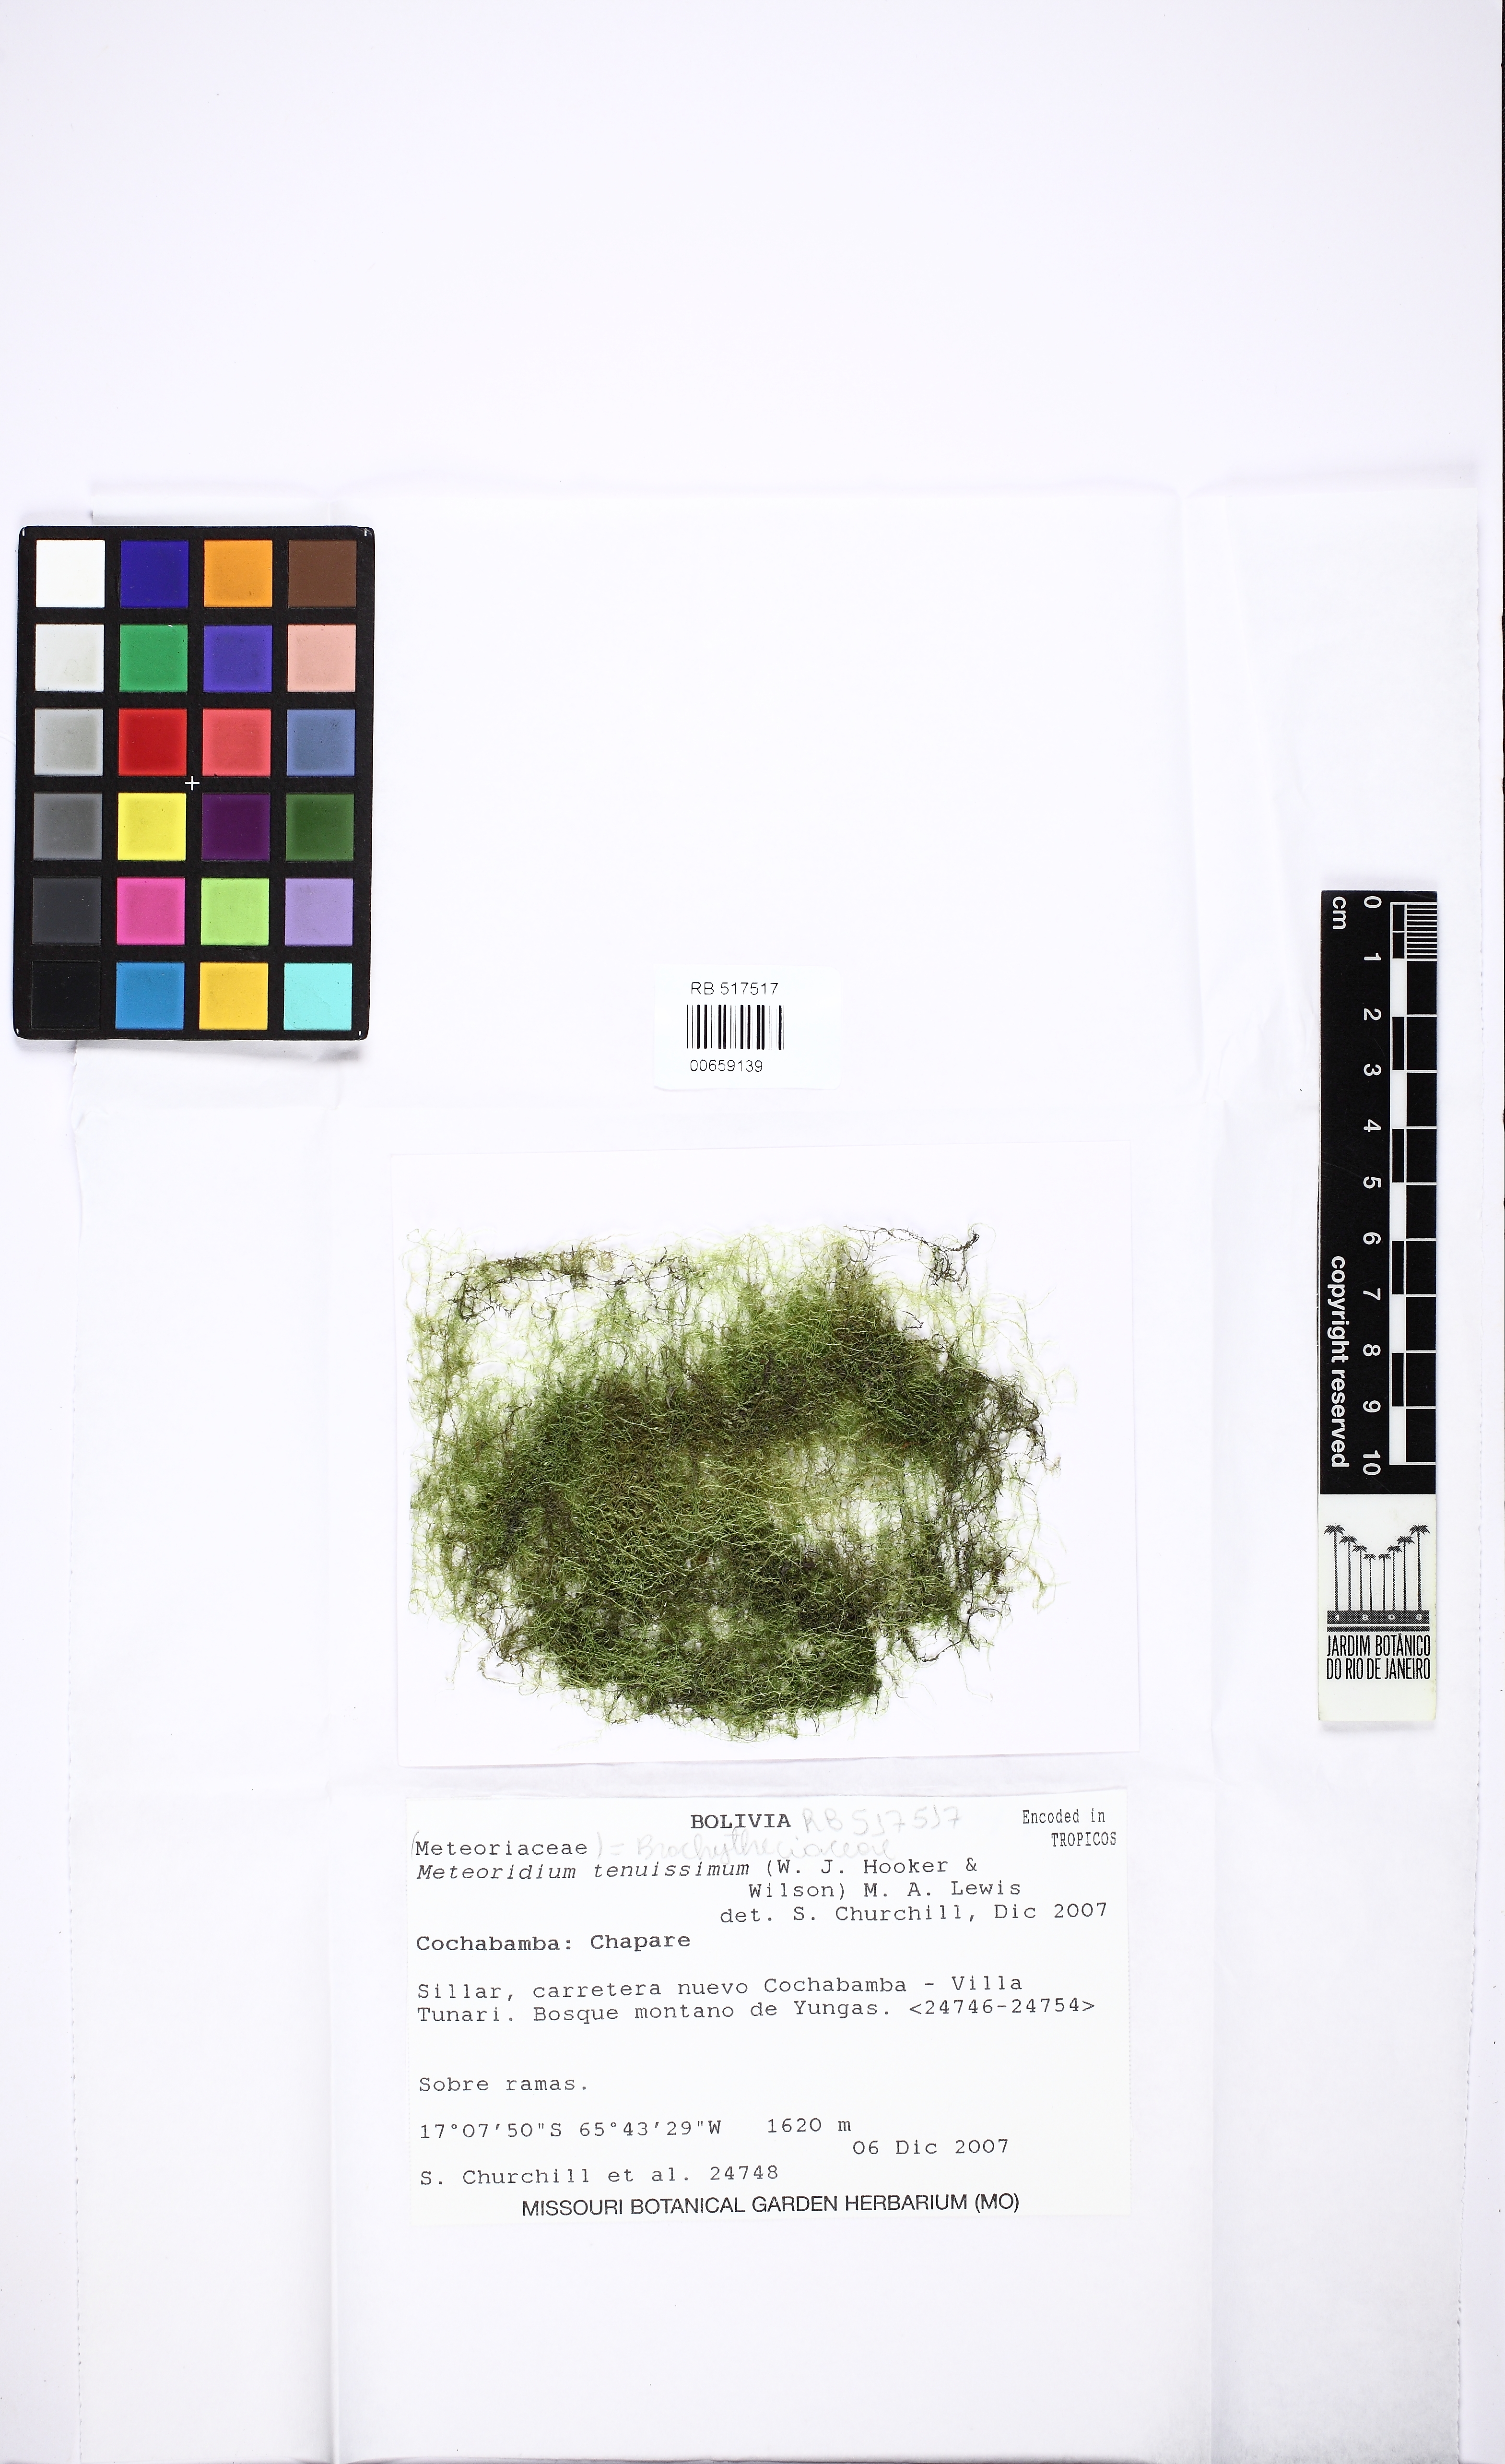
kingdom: Plantae
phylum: Bryophyta
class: Bryopsida
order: Hypnales
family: Brachytheciaceae
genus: Meteoridium
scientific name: Meteoridium tenuissimum
